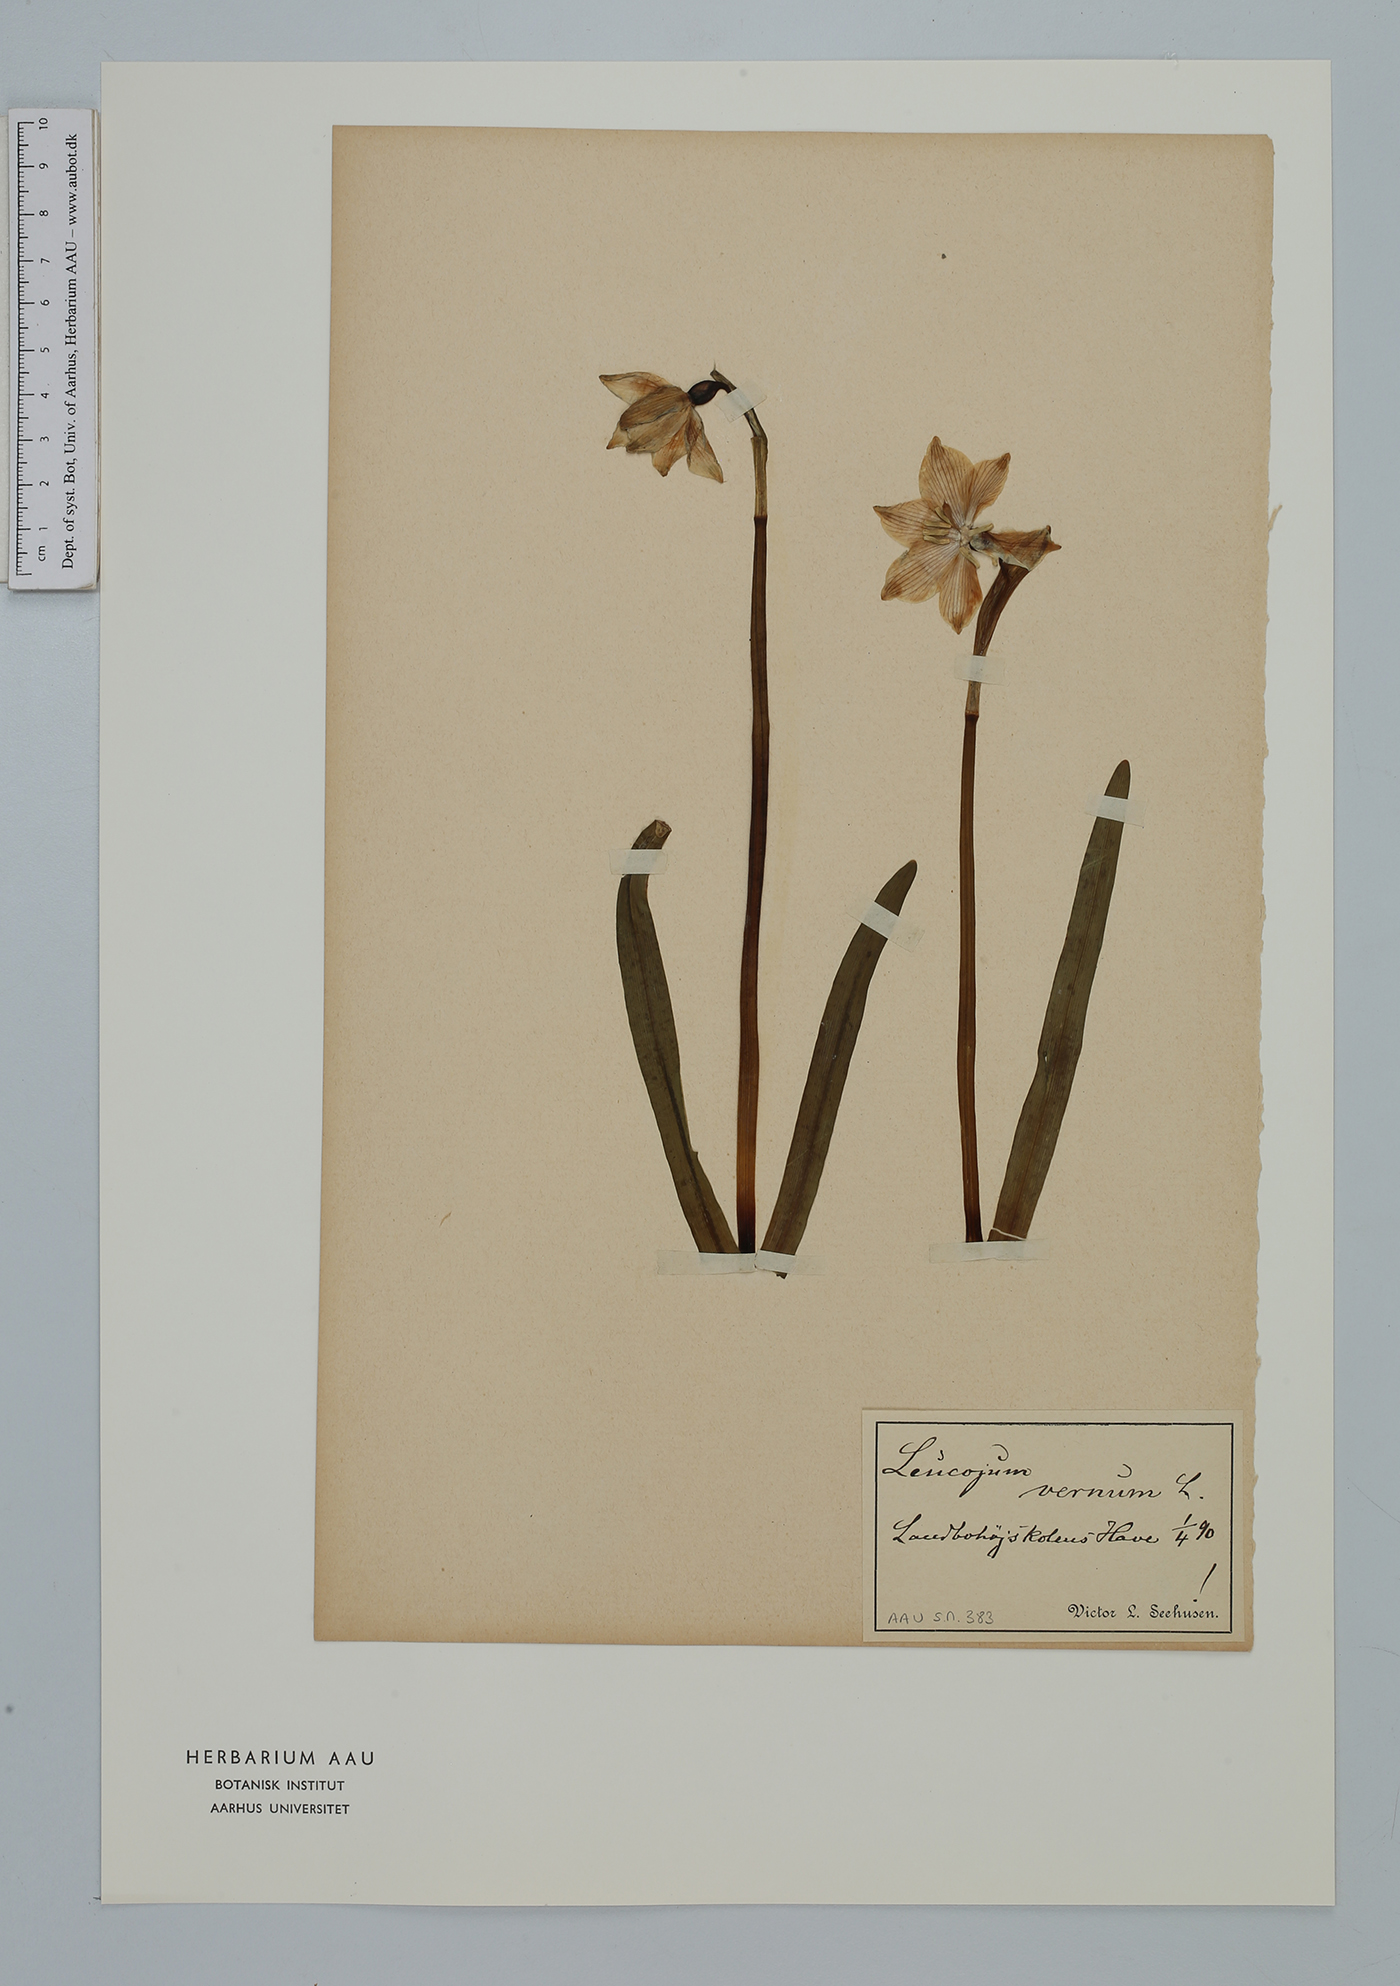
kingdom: Plantae
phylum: Tracheophyta
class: Liliopsida
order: Asparagales
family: Amaryllidaceae
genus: Leucojum
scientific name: Leucojum vernum
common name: Spring snowflake
